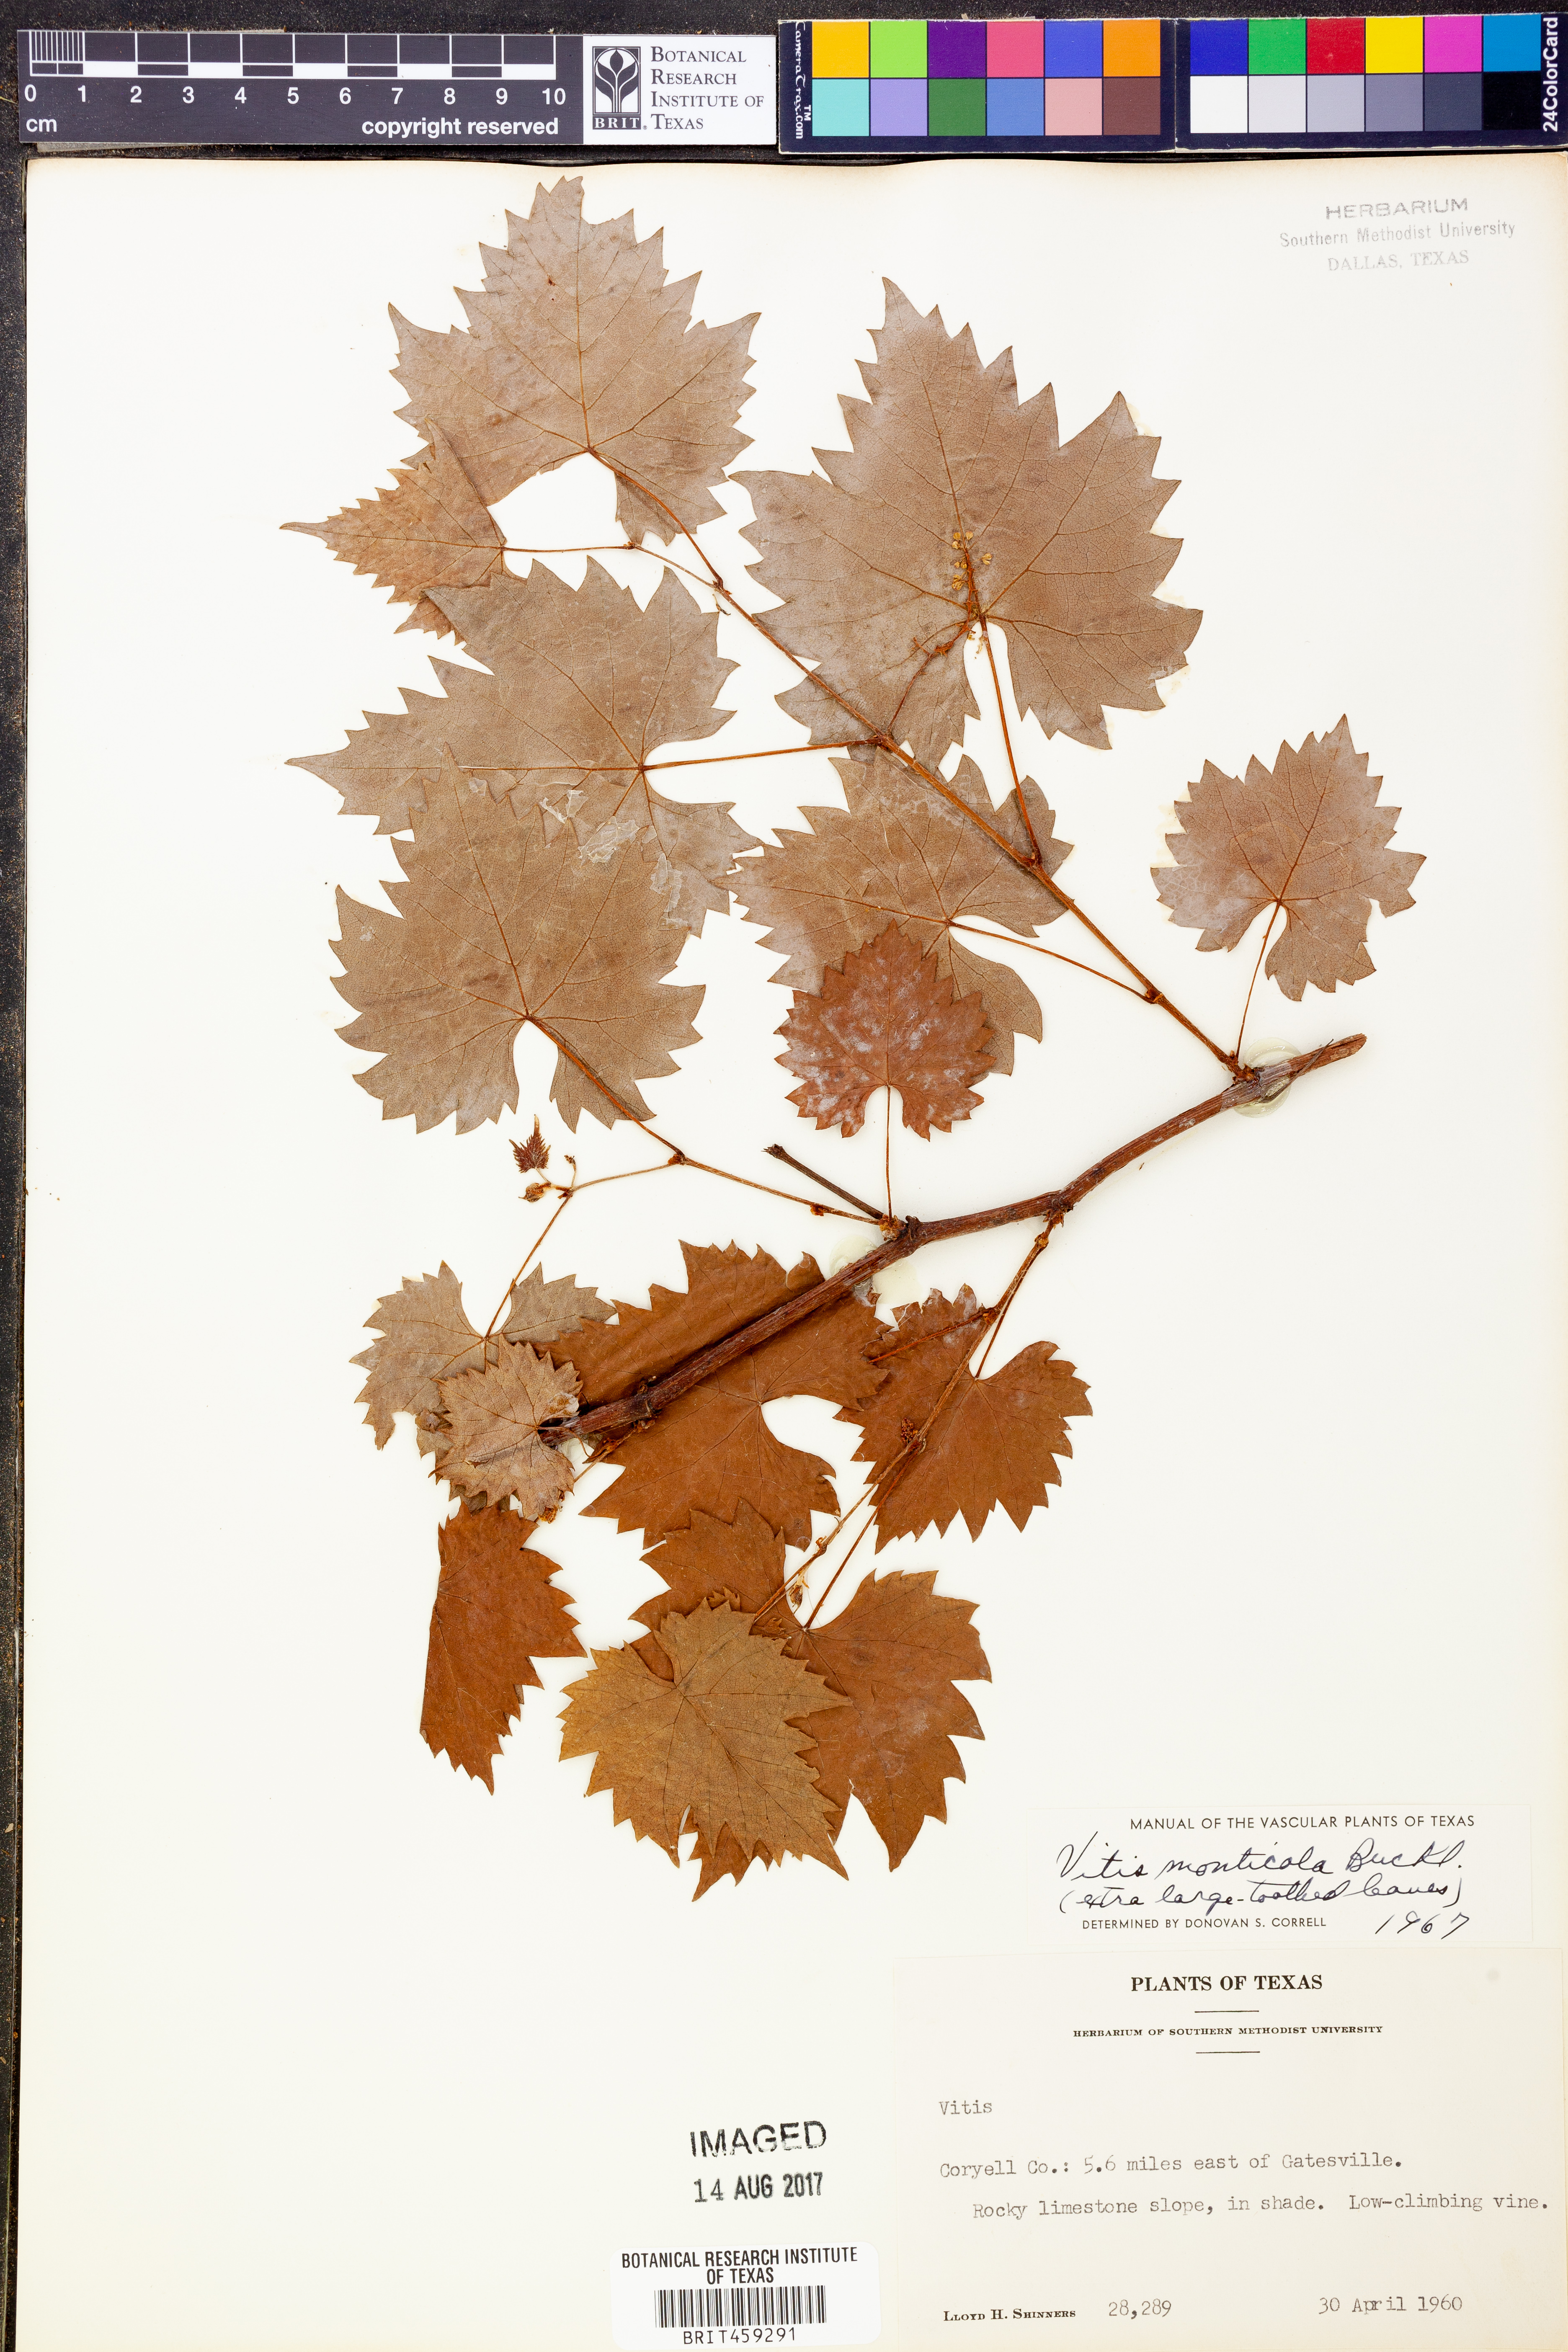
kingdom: Plantae
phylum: Tracheophyta
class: Magnoliopsida
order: Vitales
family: Vitaceae
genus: Vitis
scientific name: Vitis monticola
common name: Mountain grape
